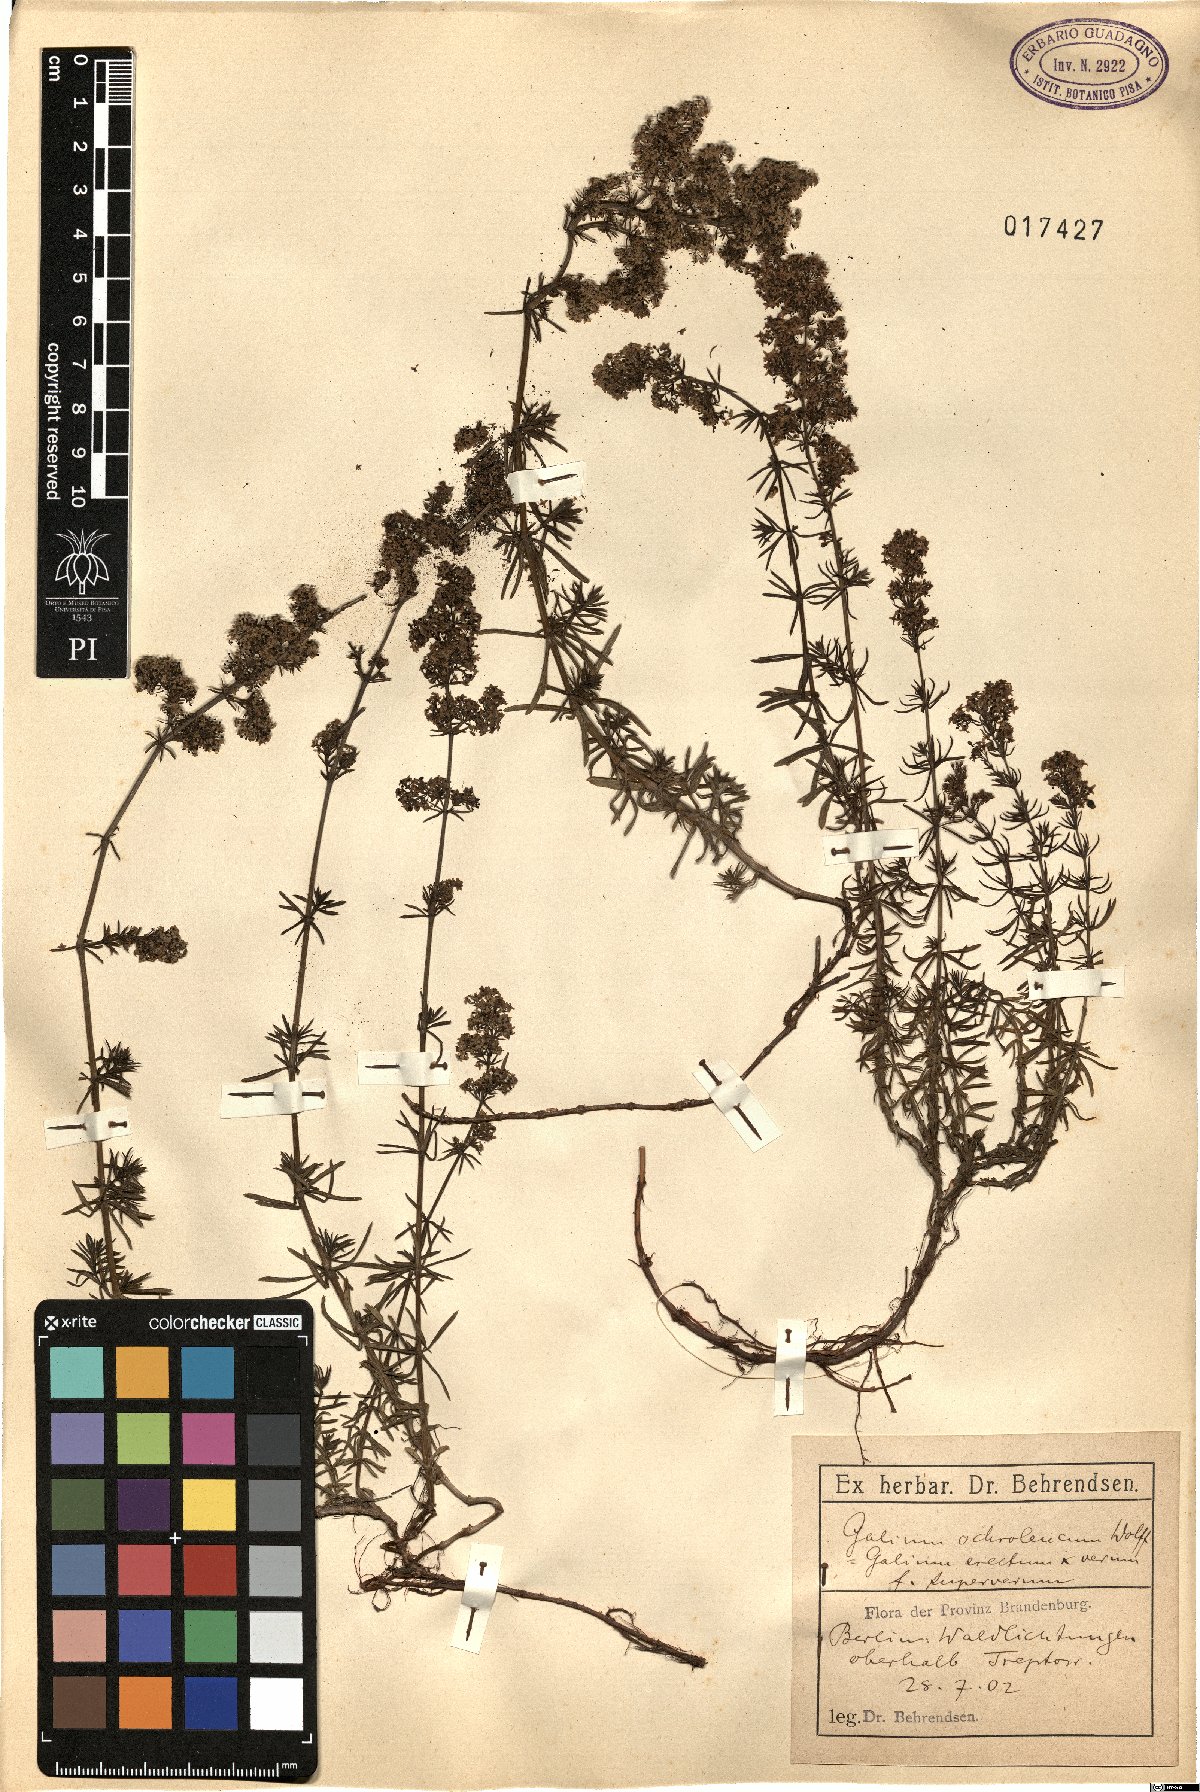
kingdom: Plantae
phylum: Tracheophyta
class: Magnoliopsida
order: Gentianales
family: Rubiaceae
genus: Galium
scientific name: Galium pomeranicum
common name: Bedstraw
